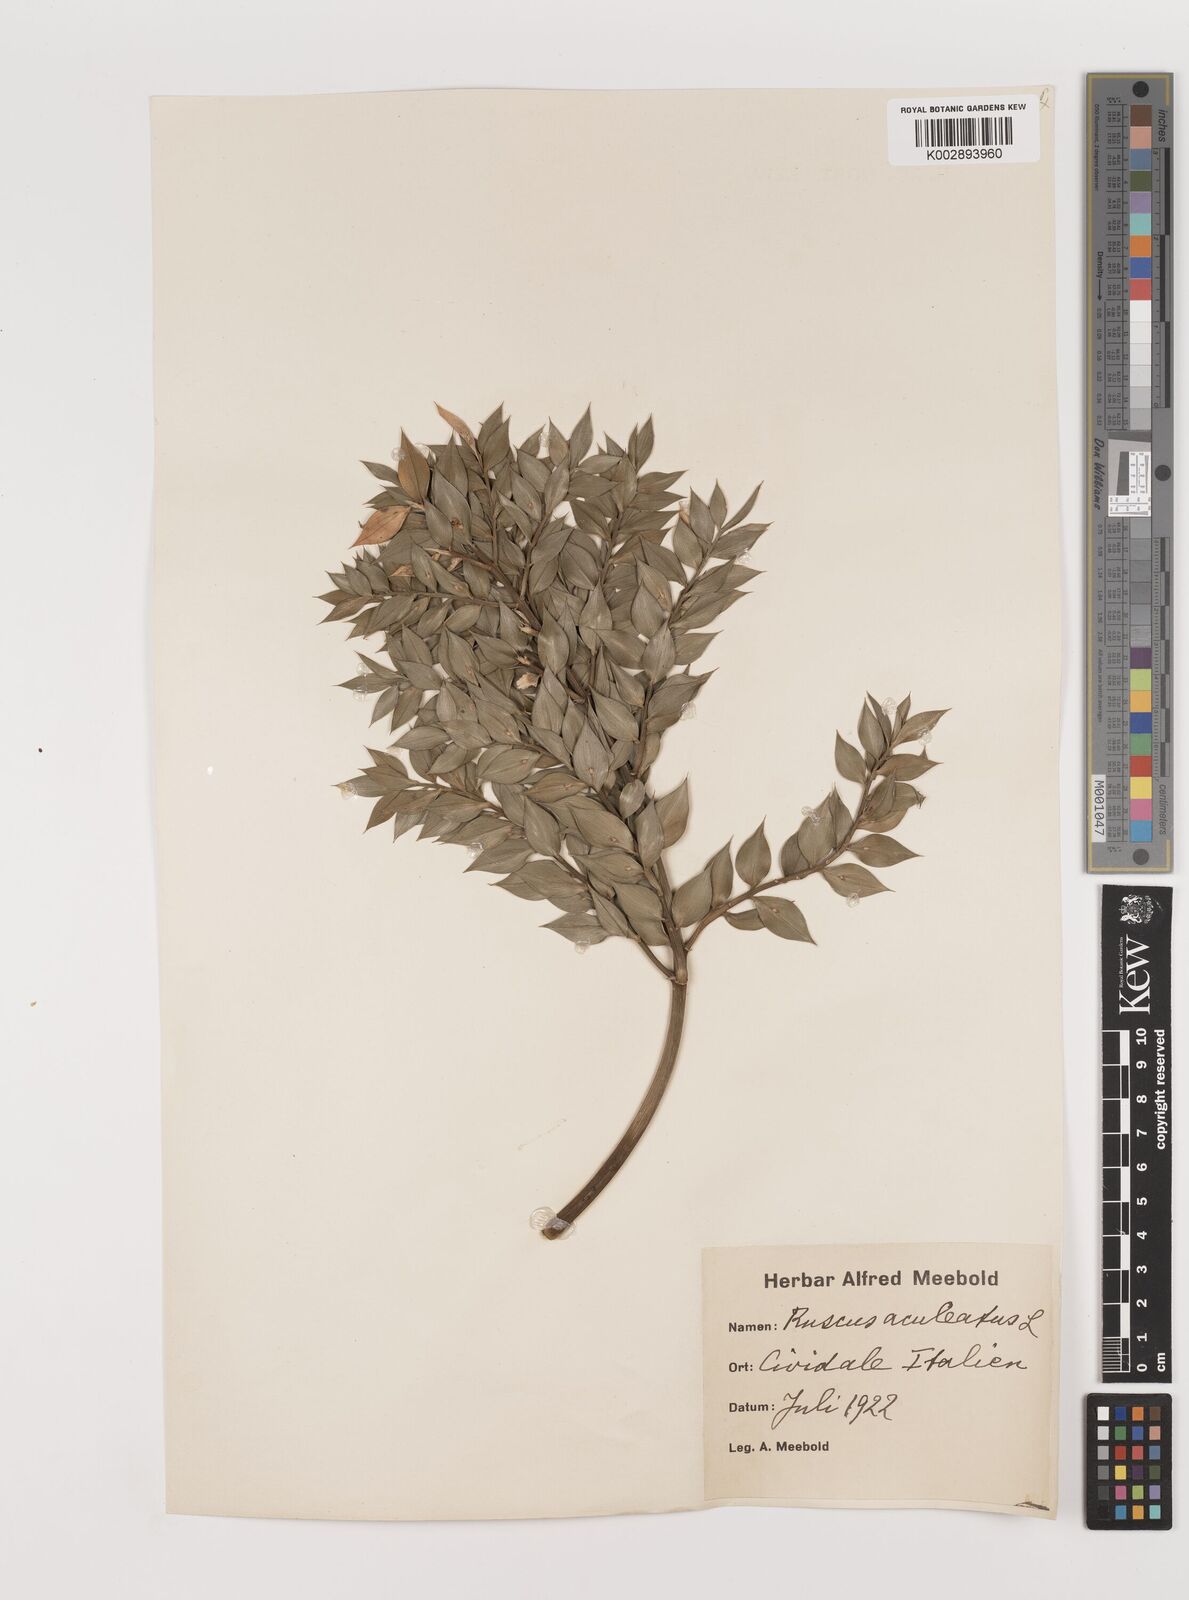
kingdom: Plantae
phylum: Tracheophyta
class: Liliopsida
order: Asparagales
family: Asparagaceae
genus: Ruscus
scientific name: Ruscus
